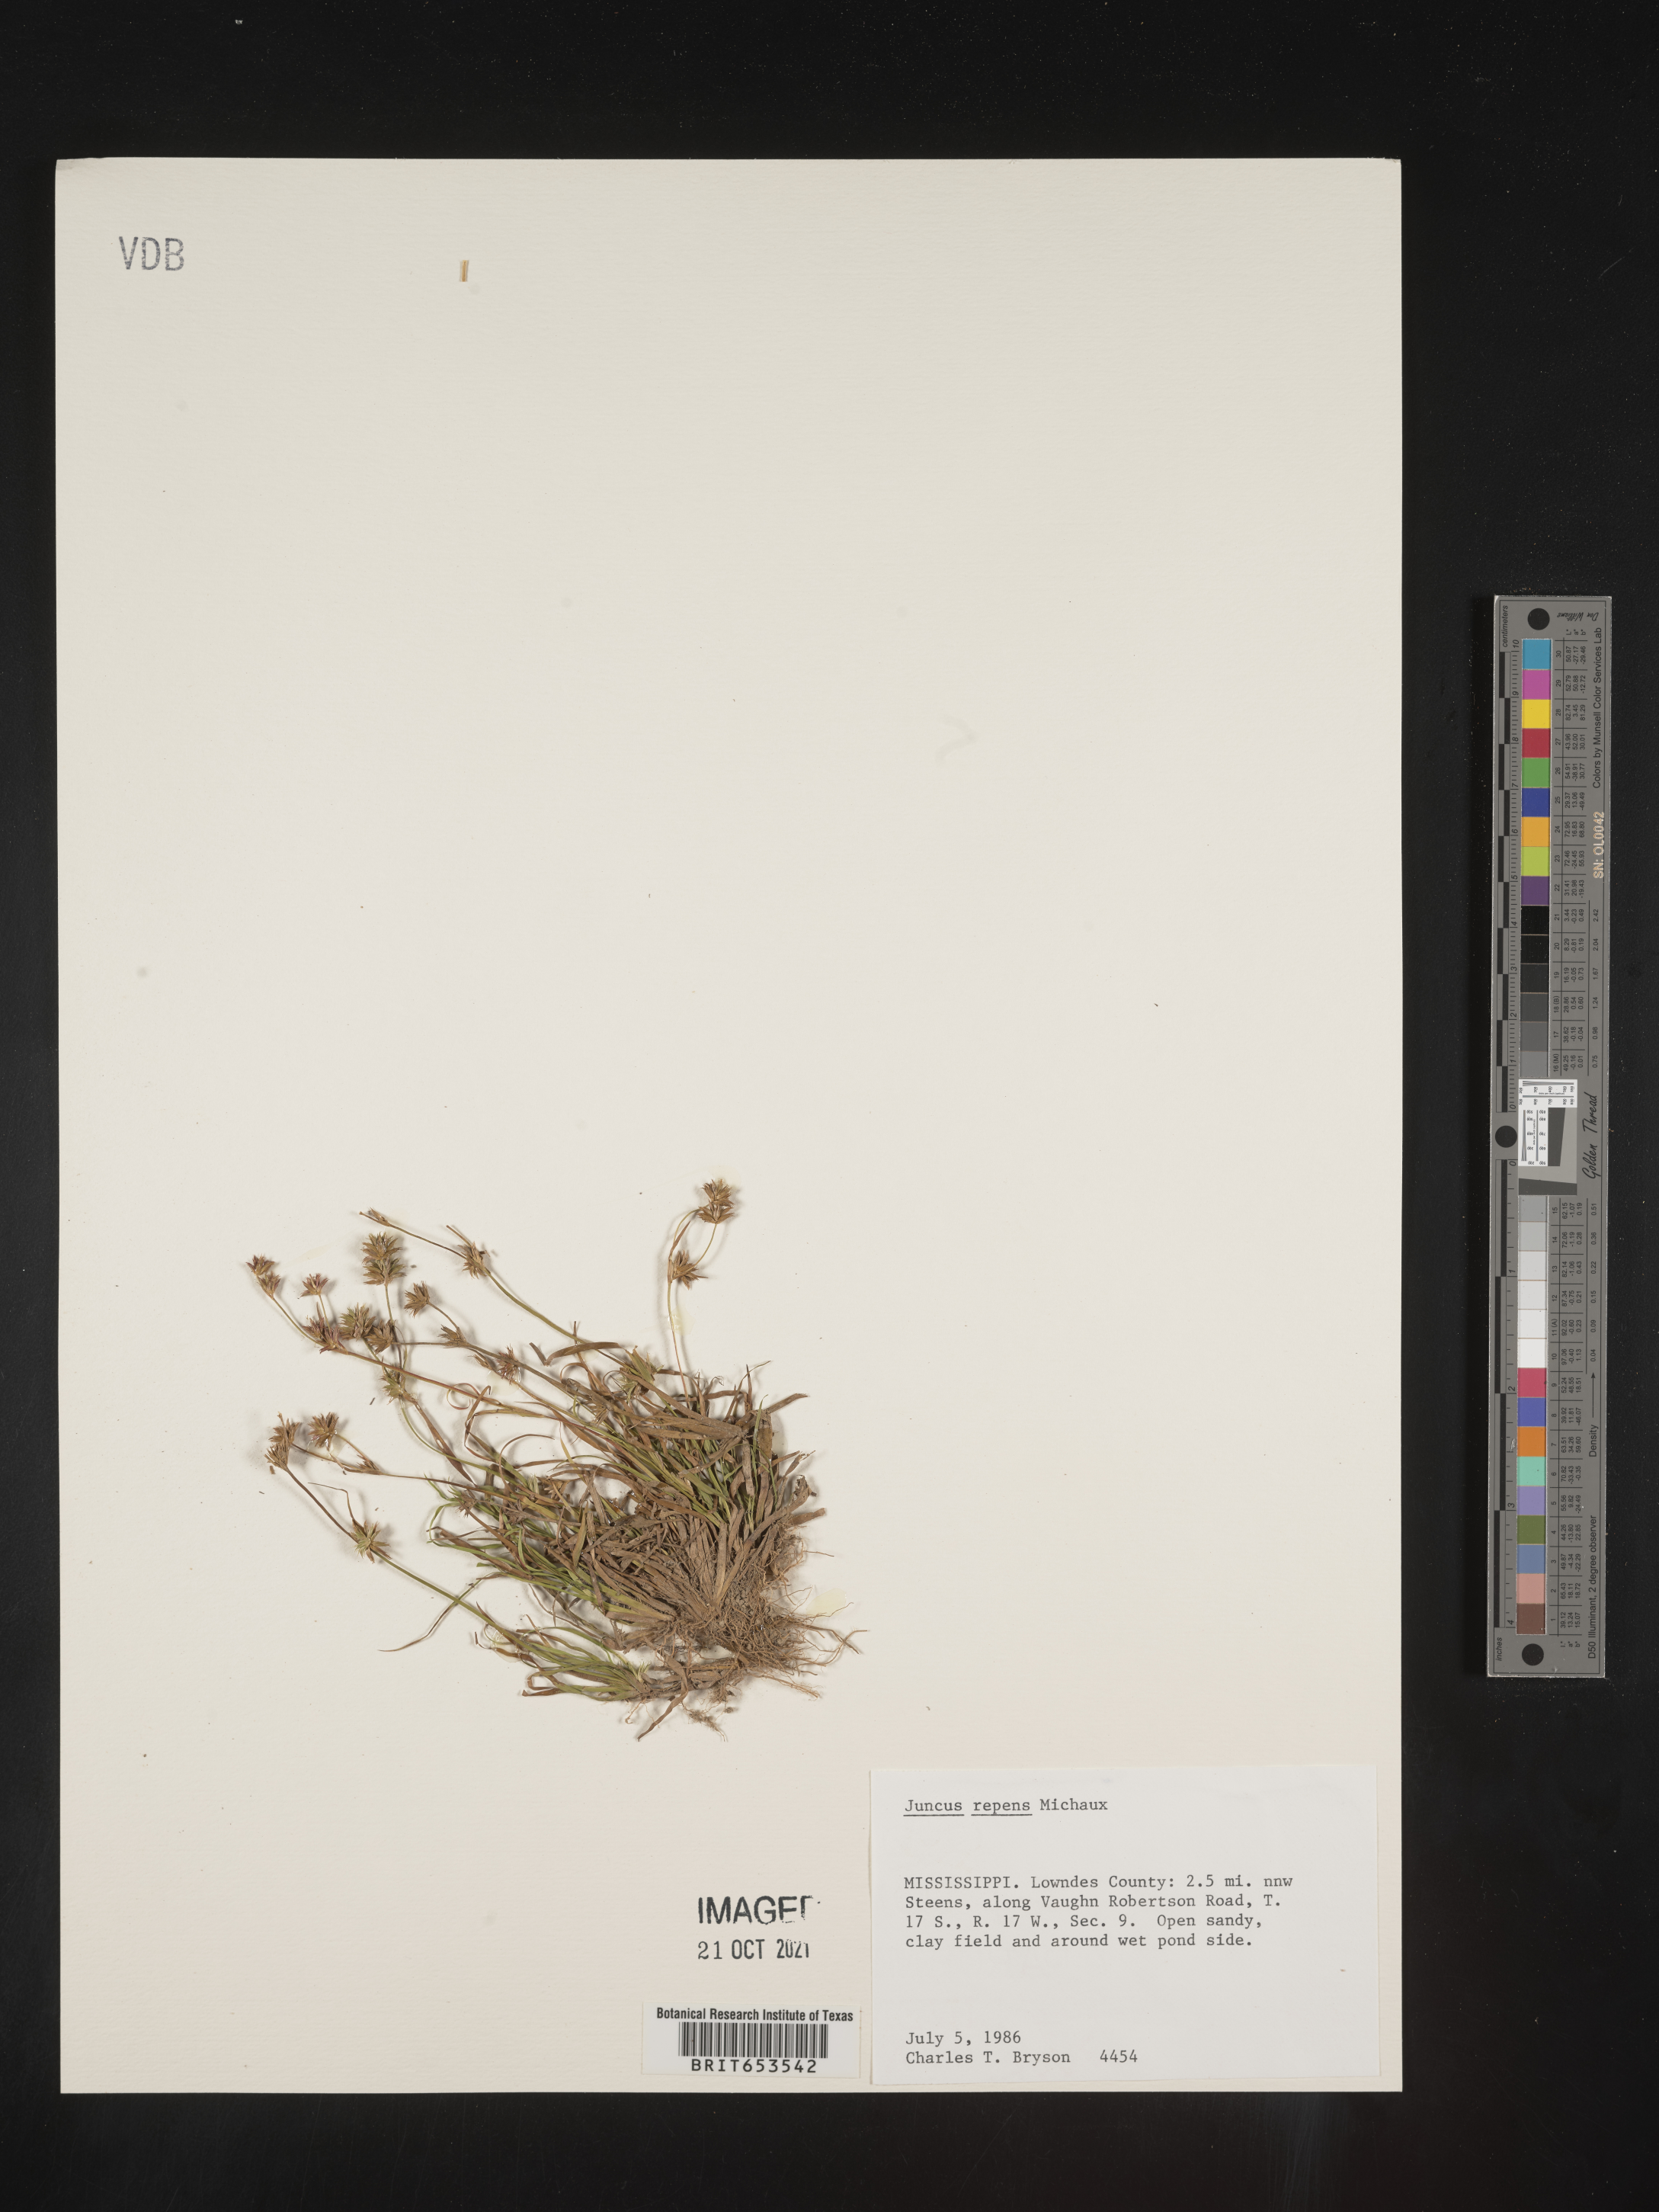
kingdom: Plantae
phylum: Tracheophyta
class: Liliopsida
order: Poales
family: Juncaceae
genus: Juncus
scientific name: Juncus repens
